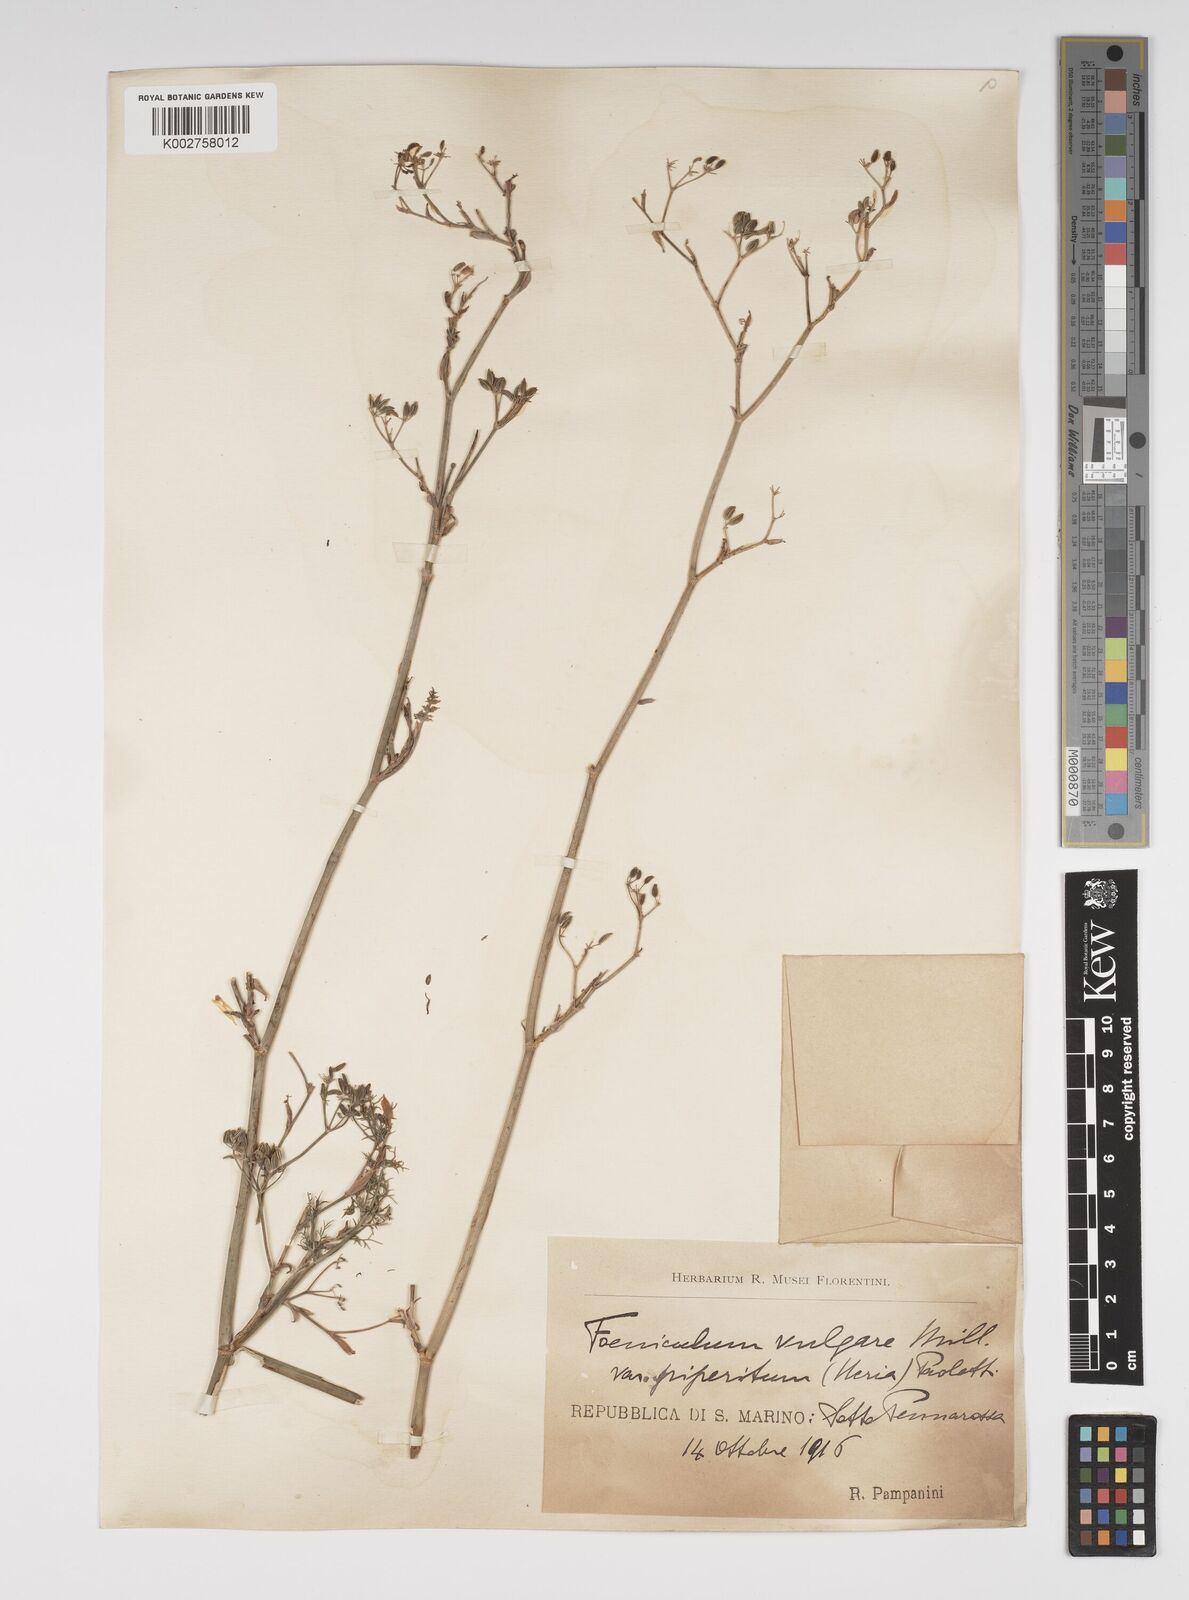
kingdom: Plantae
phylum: Tracheophyta
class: Magnoliopsida
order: Apiales
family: Apiaceae
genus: Foeniculum
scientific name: Foeniculum vulgare
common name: Fennel
